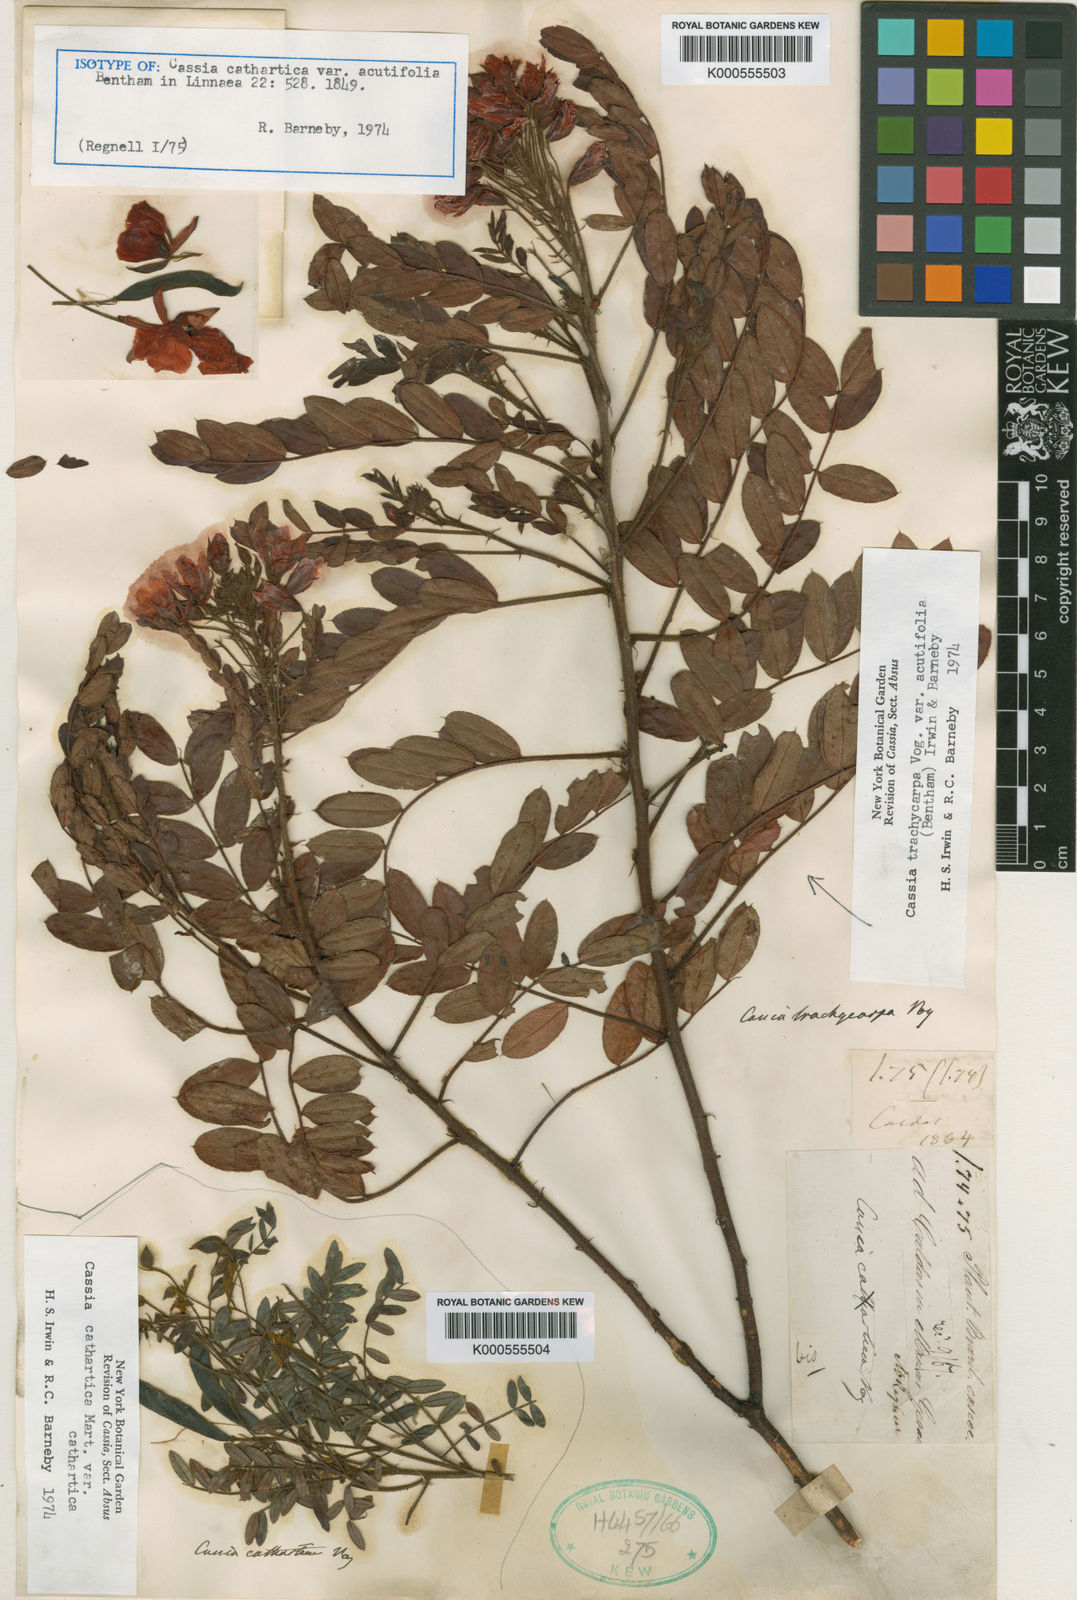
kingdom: Plantae
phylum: Tracheophyta
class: Magnoliopsida
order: Fabales
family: Fabaceae
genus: Chamaecrista
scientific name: Chamaecrista trachycarpa
